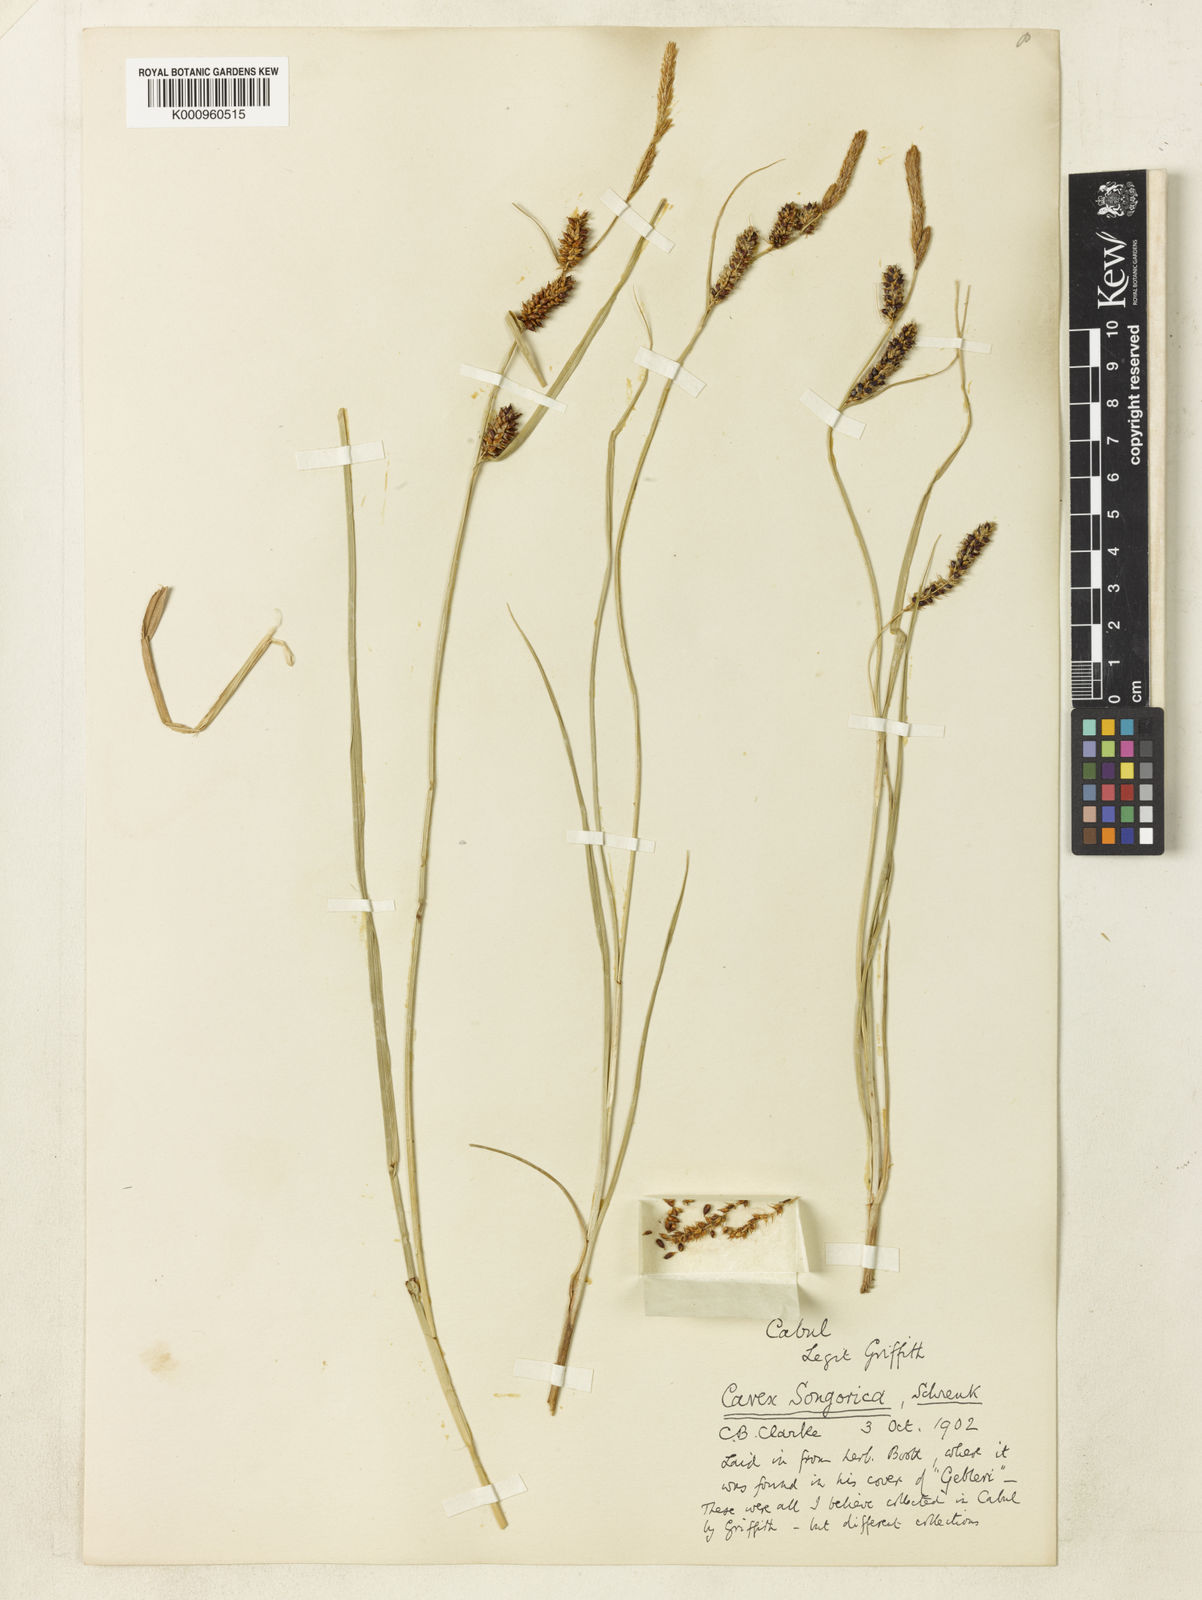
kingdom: Plantae
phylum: Tracheophyta
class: Liliopsida
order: Poales
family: Cyperaceae
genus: Carex
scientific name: Carex heterostachya
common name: Different-spike sedge
